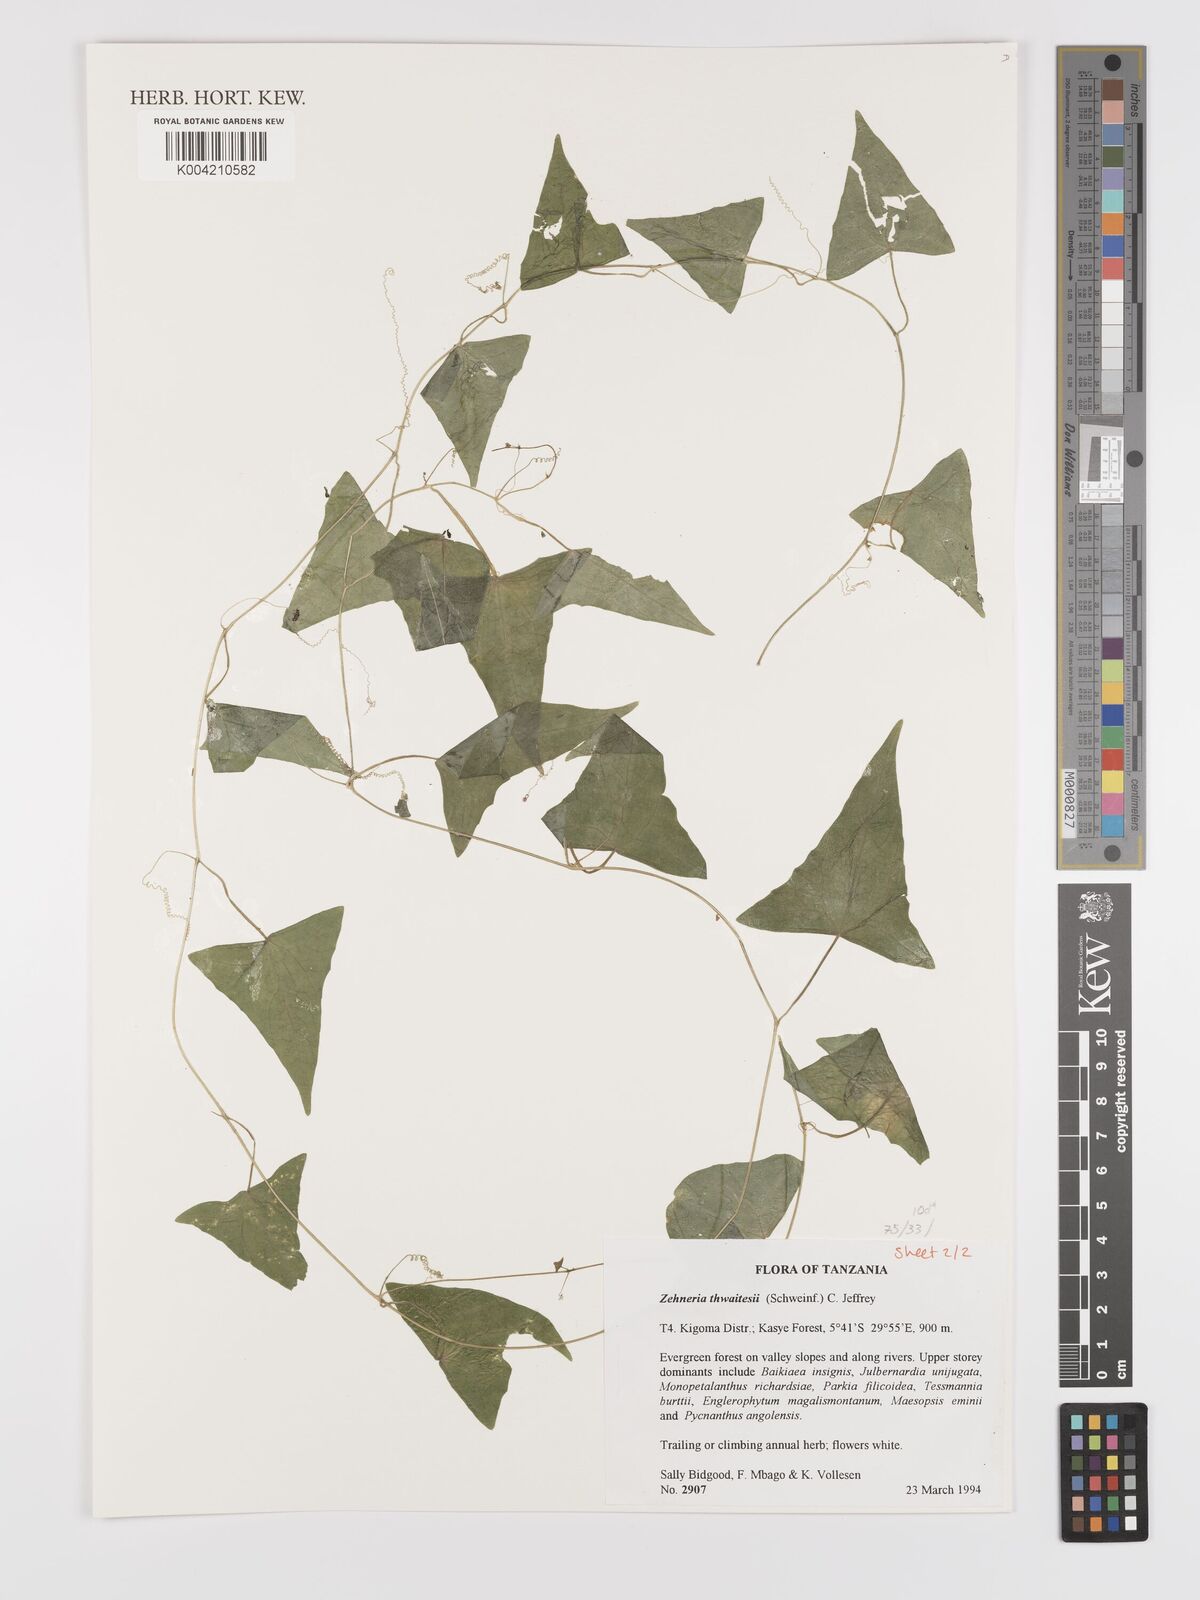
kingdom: Plantae
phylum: Tracheophyta
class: Magnoliopsida
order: Cucurbitales
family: Cucurbitaceae
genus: Zehneria
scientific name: Zehneria thwaitesii
